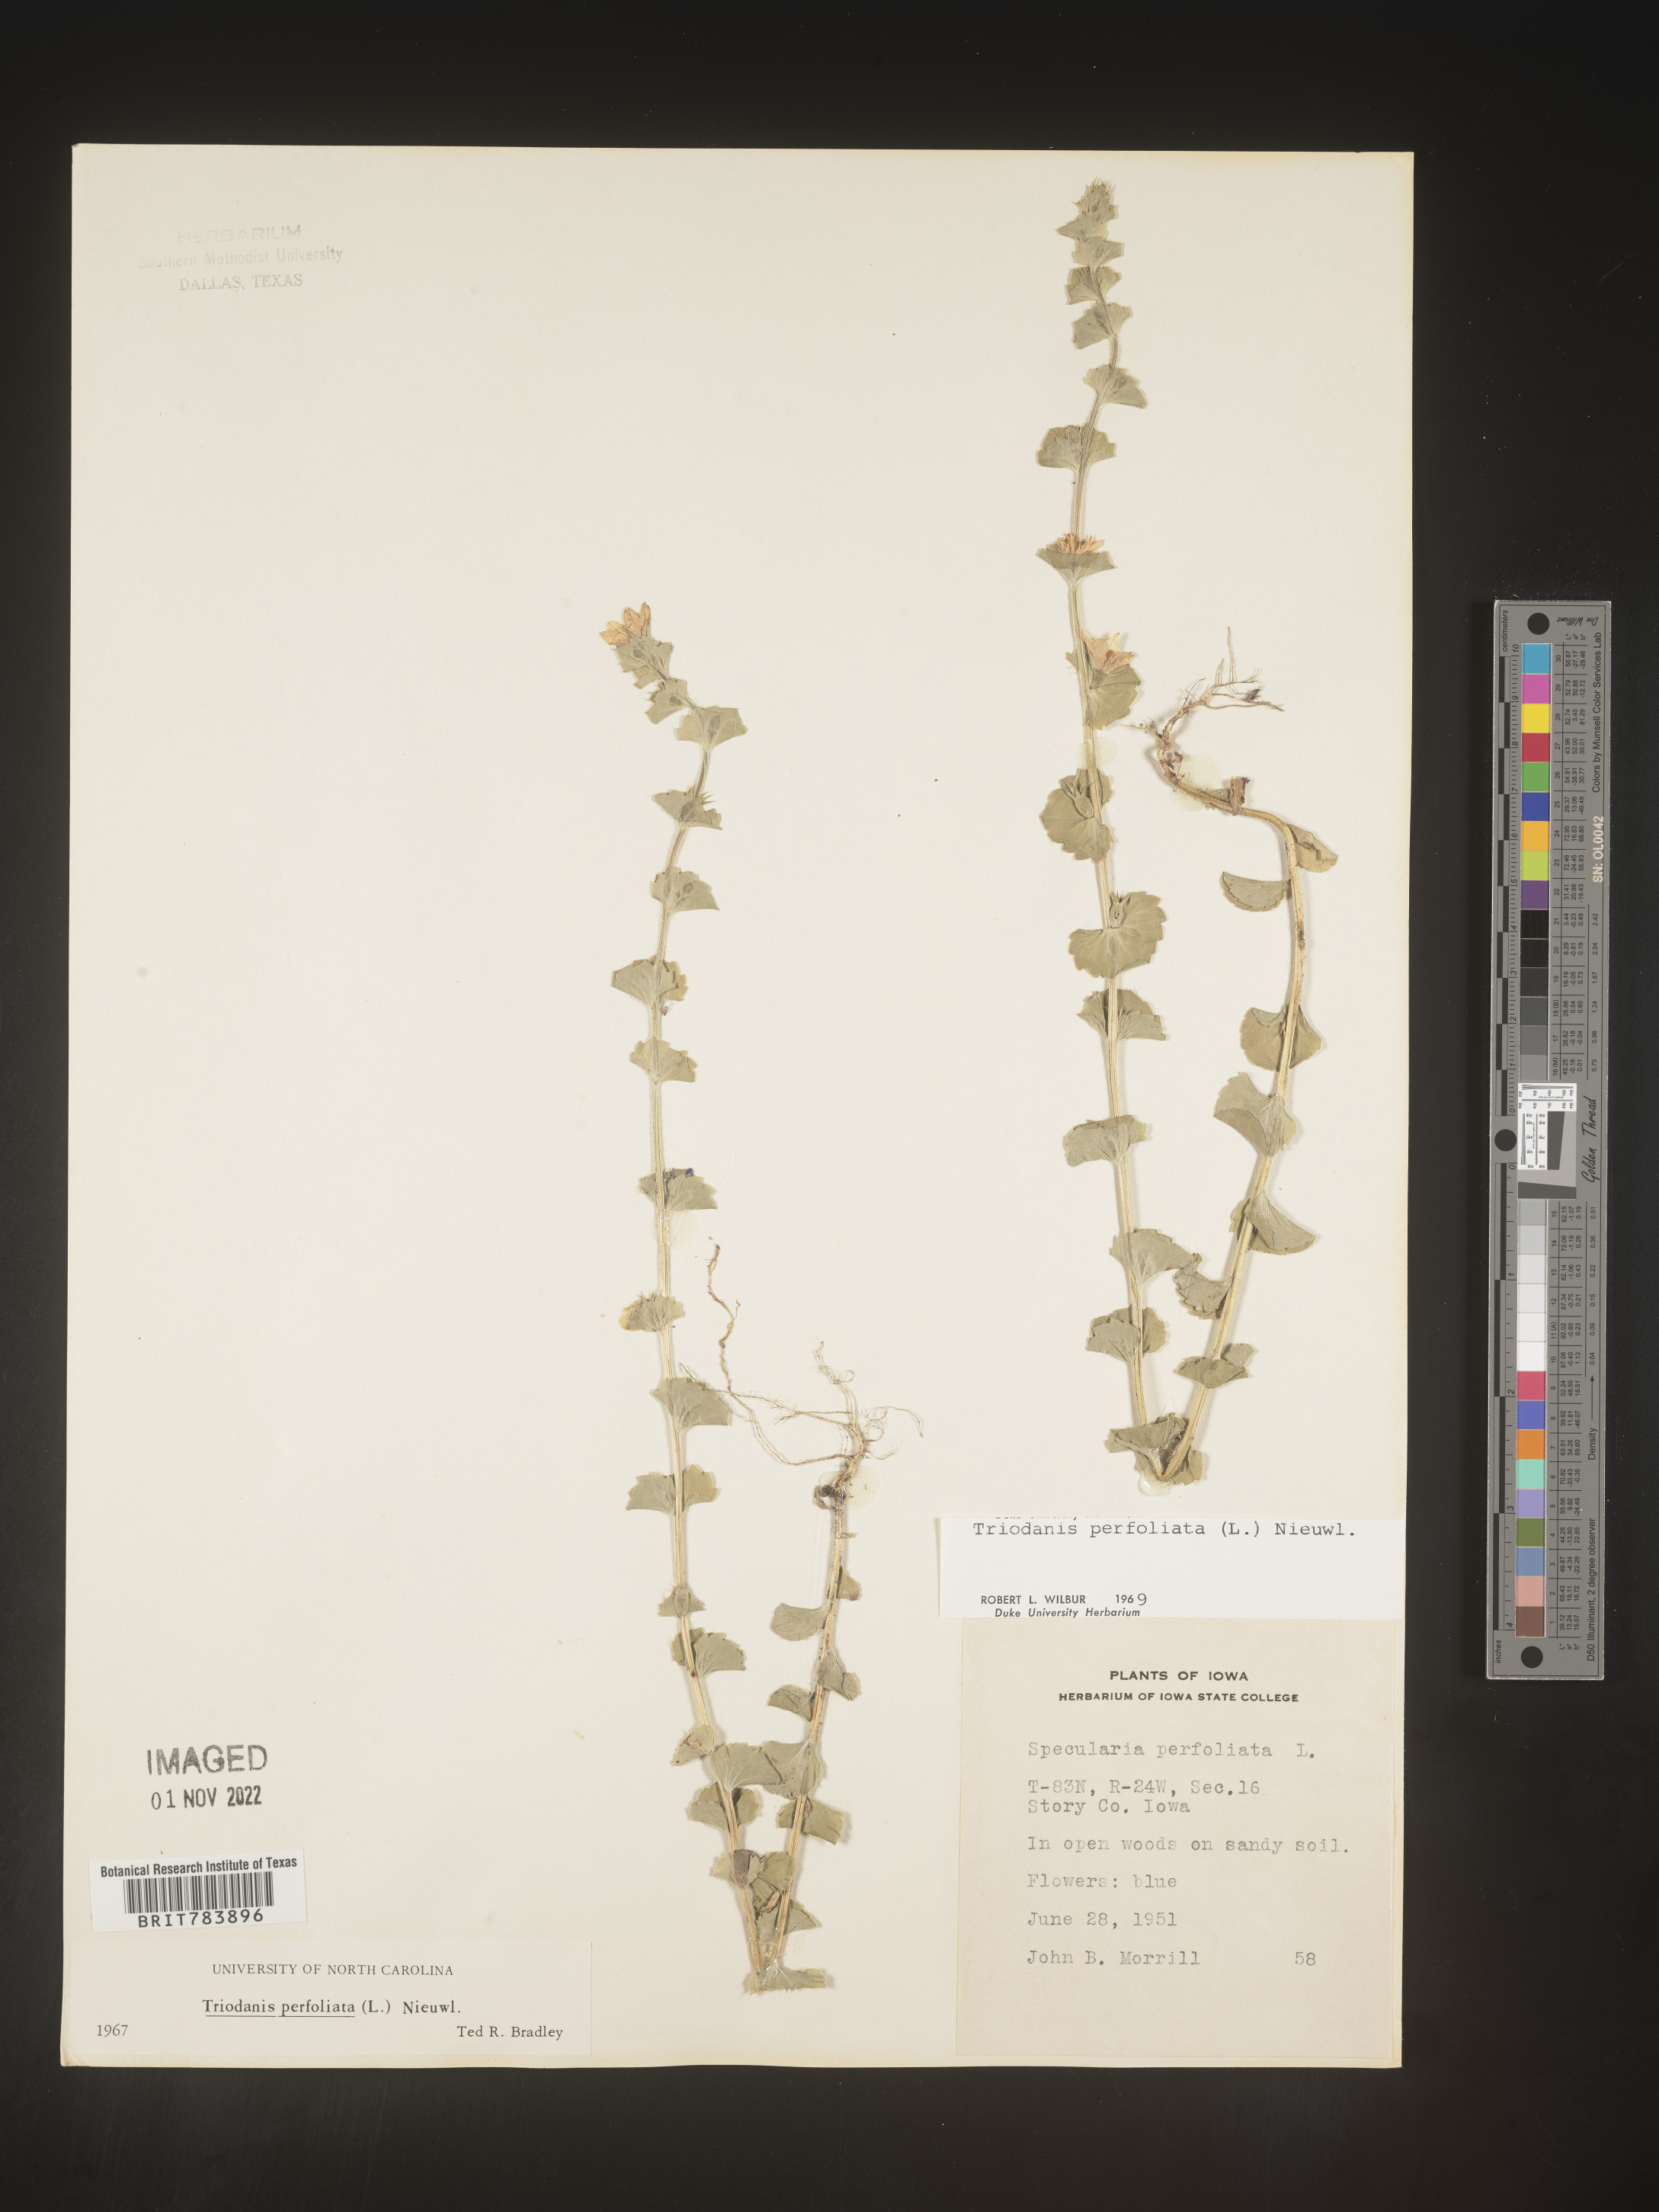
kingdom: Plantae
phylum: Tracheophyta
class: Magnoliopsida
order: Asterales
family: Campanulaceae
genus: Triodanis
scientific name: Triodanis perfoliata
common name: Clasping venus' looking-glass
